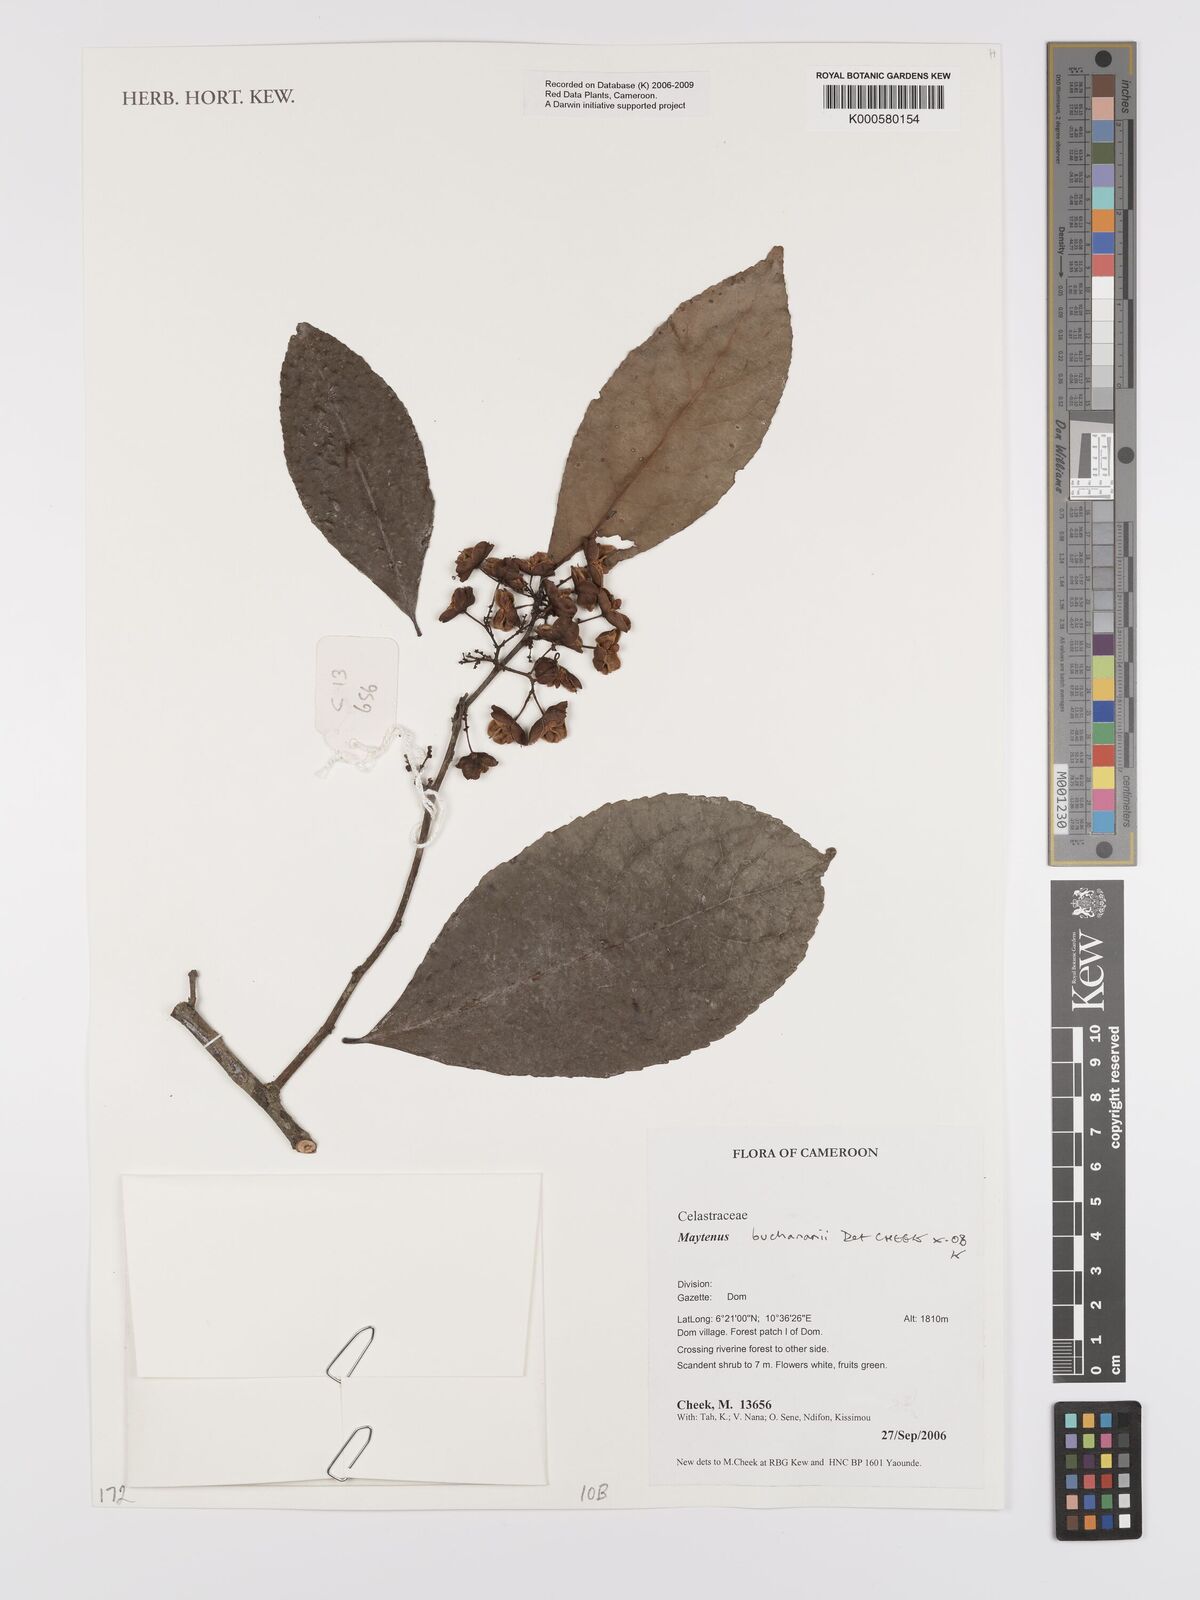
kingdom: Plantae
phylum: Tracheophyta
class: Magnoliopsida
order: Celastrales
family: Celastraceae
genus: Gymnosporia
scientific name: Gymnosporia buchananii
